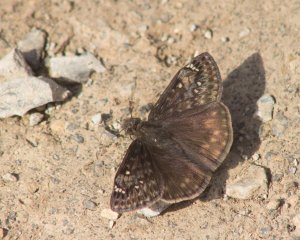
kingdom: Animalia
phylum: Arthropoda
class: Insecta
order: Lepidoptera
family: Hesperiidae
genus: Erynnis
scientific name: Erynnis
